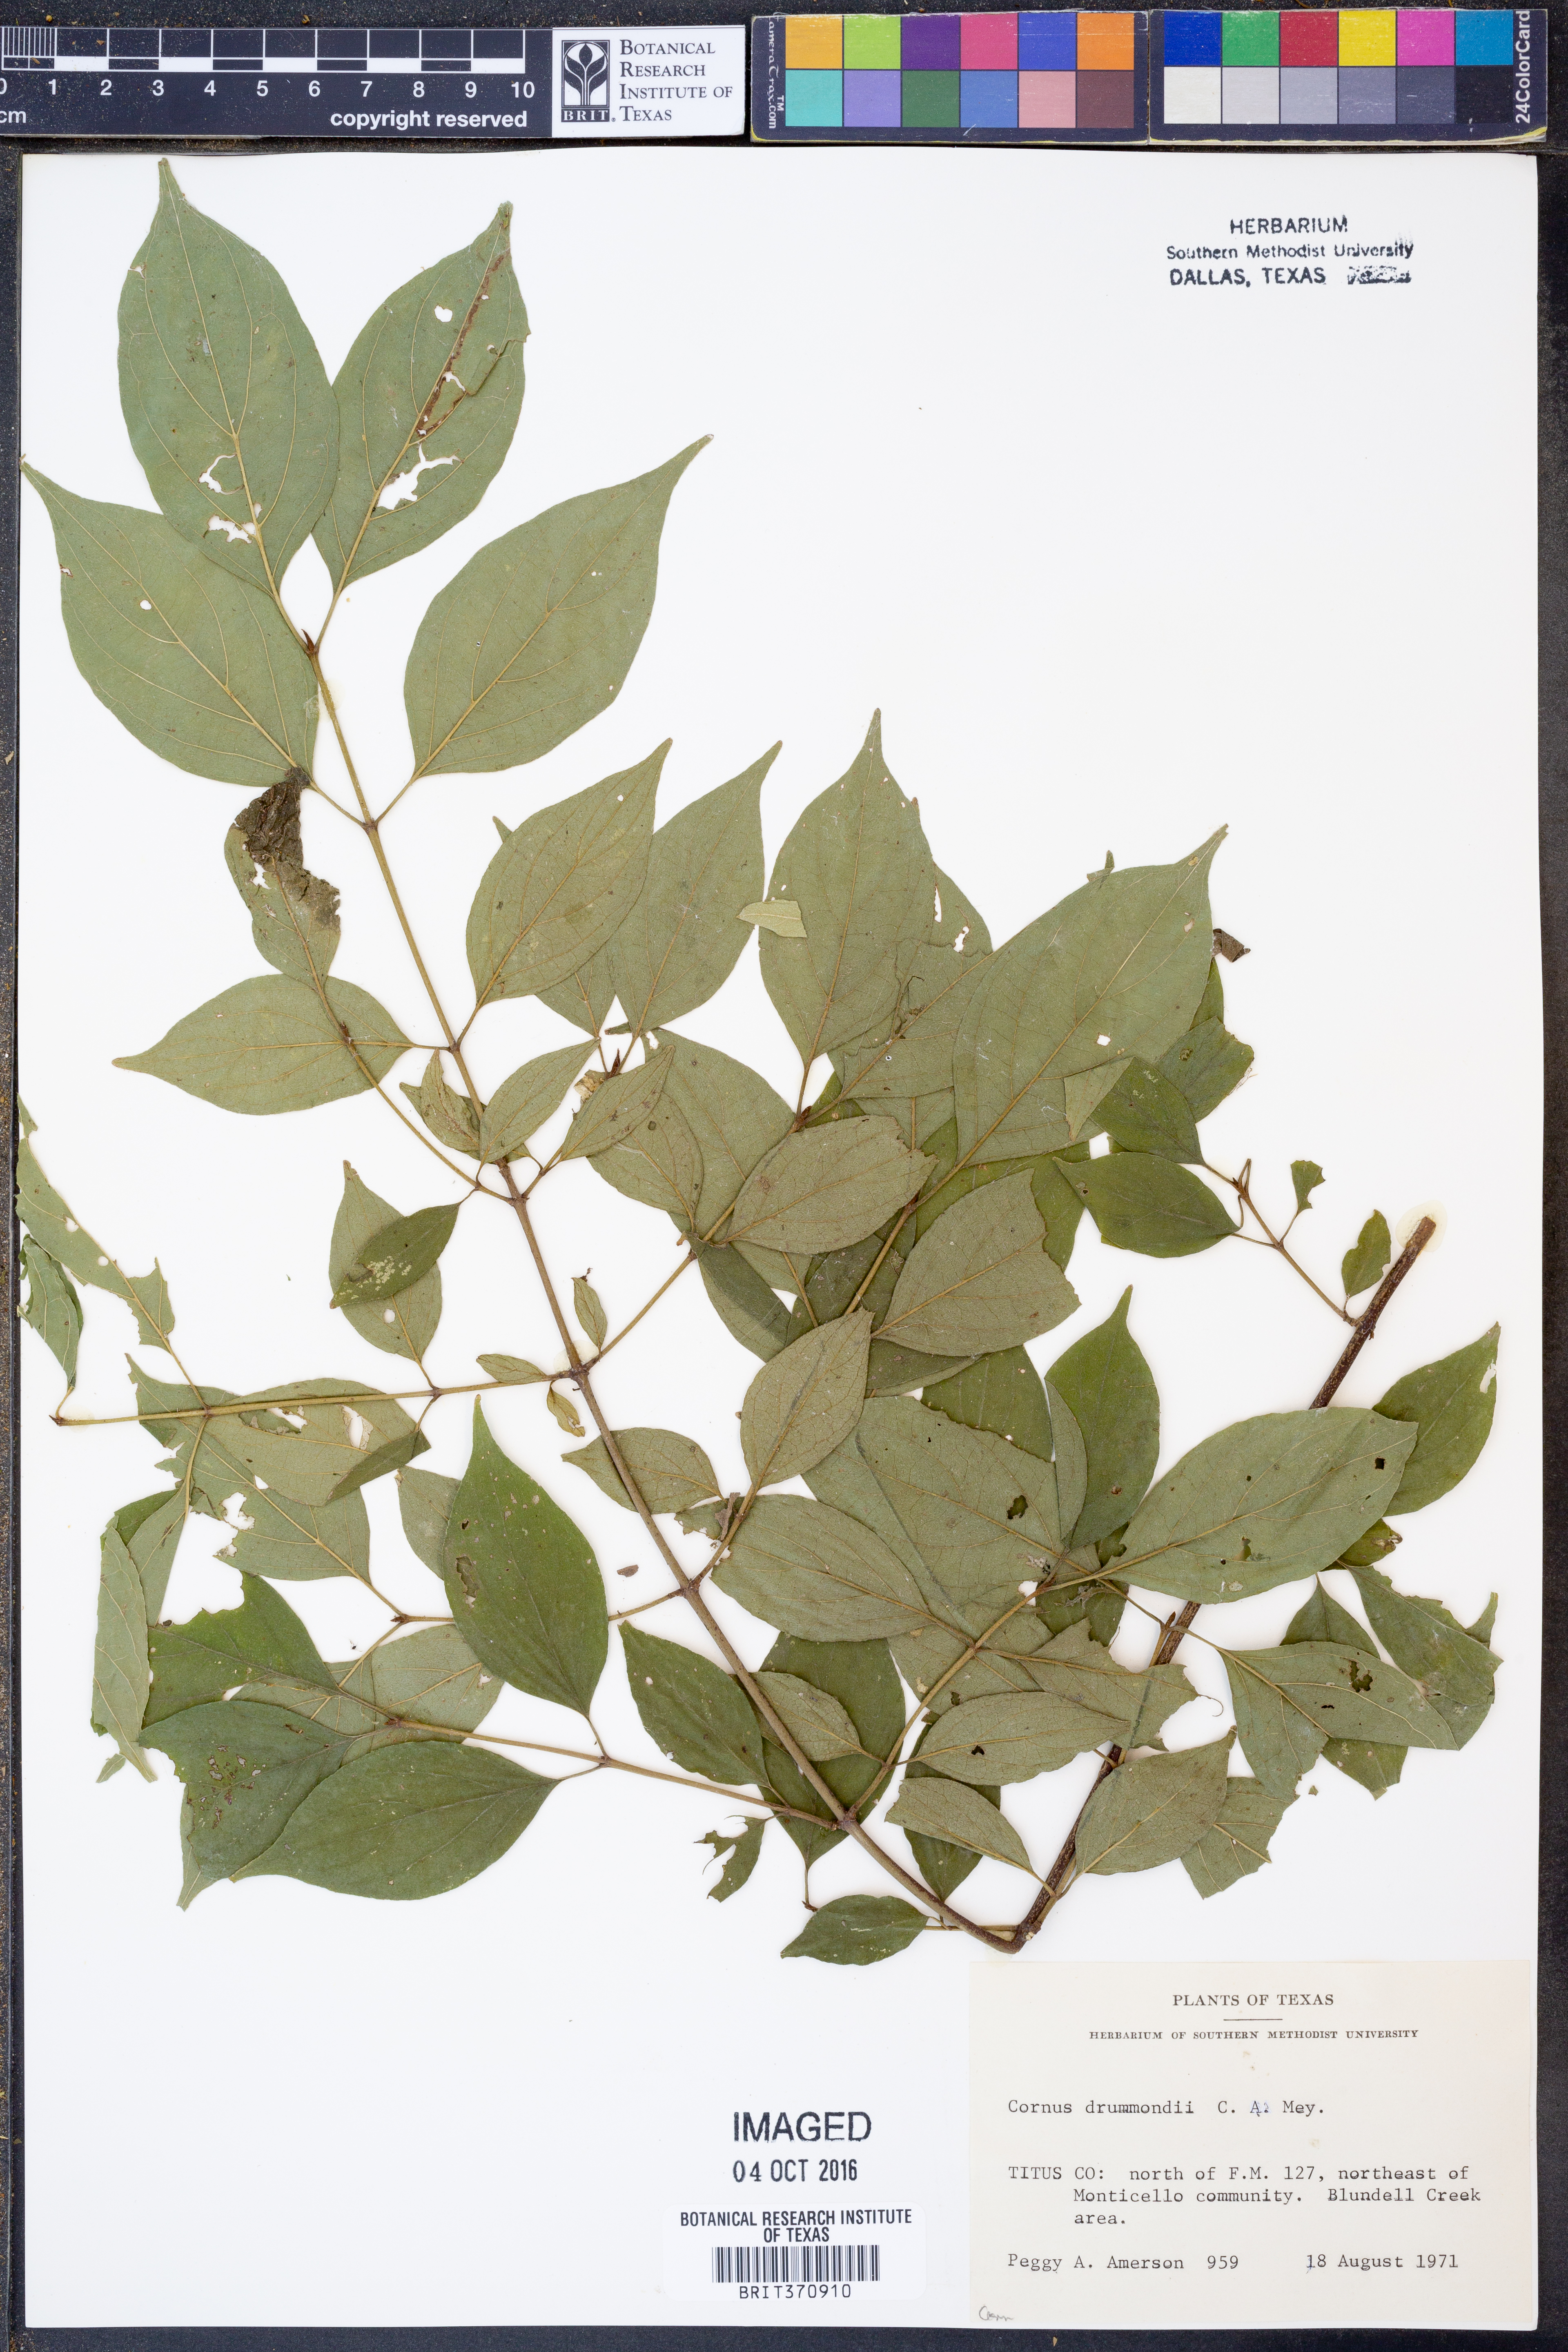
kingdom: Plantae
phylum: Tracheophyta
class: Magnoliopsida
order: Cornales
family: Cornaceae
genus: Cornus
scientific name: Cornus drummondii
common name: Rough-leaf dogwood
